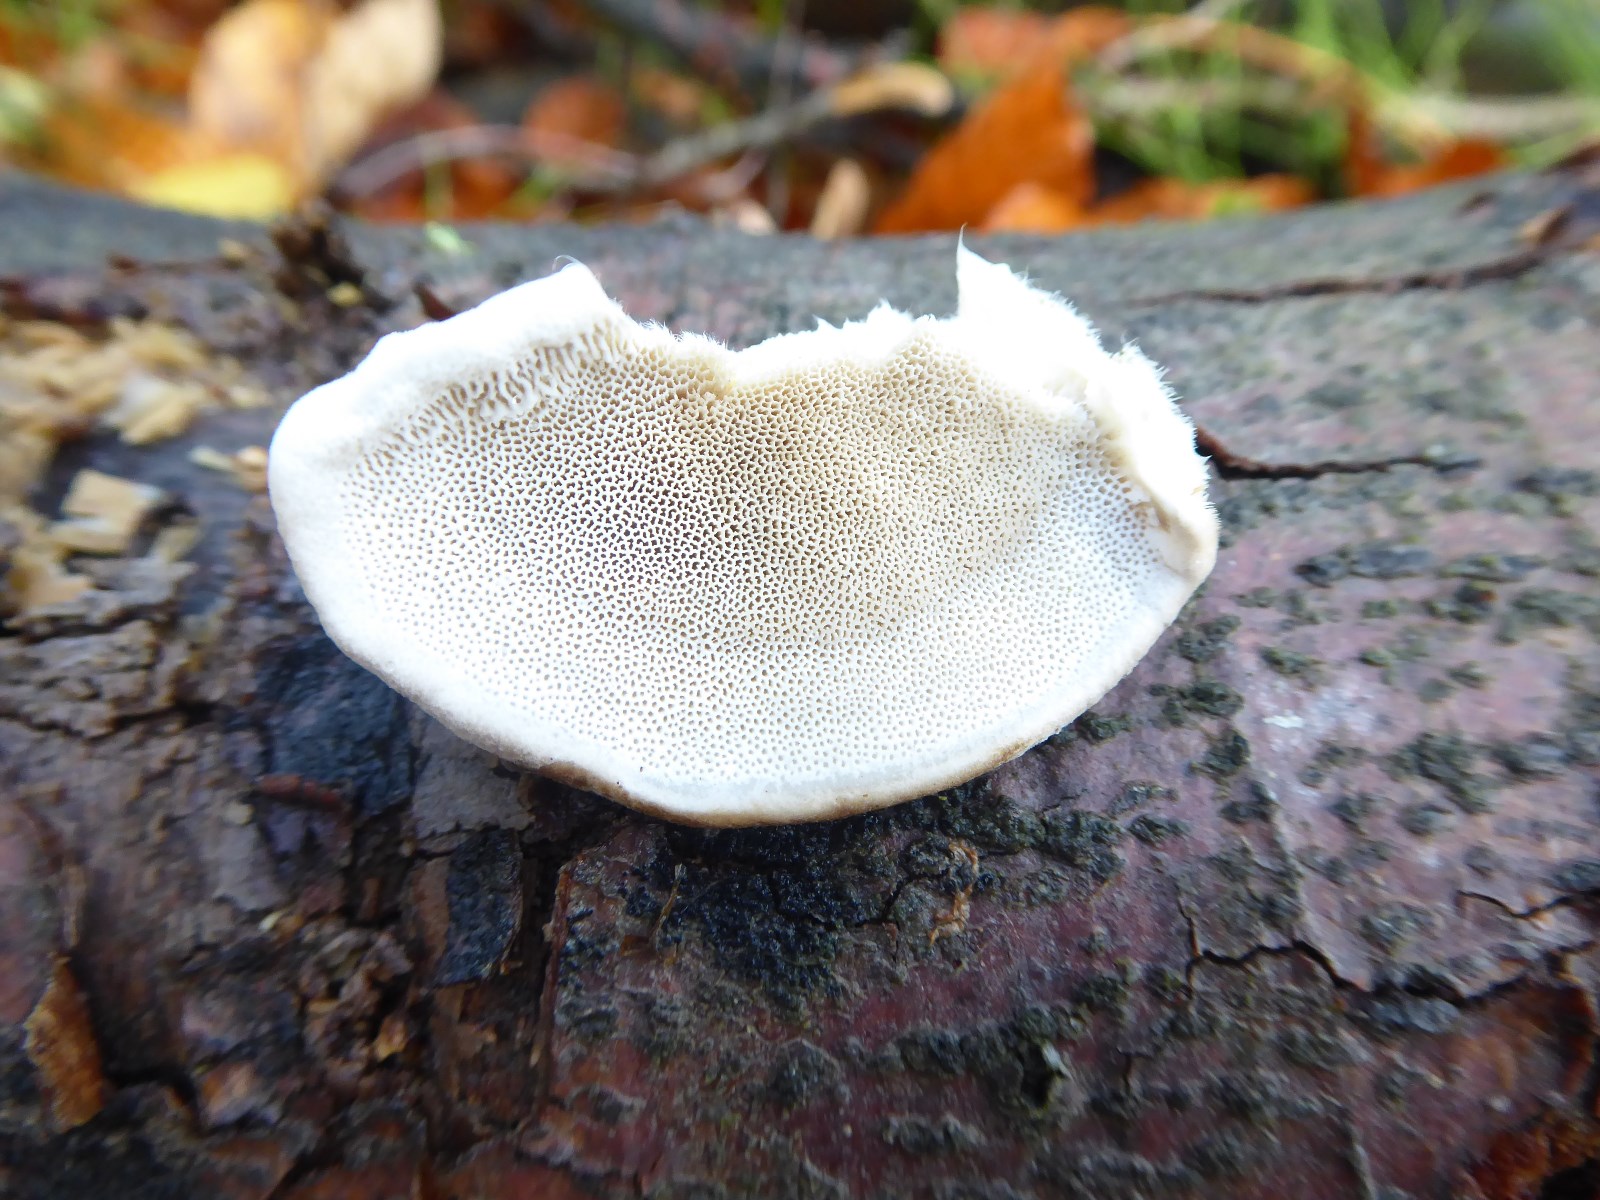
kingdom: Fungi
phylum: Basidiomycota
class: Agaricomycetes
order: Polyporales
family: Polyporaceae
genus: Trametes
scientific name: Trametes hirsuta
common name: håret læderporesvamp
